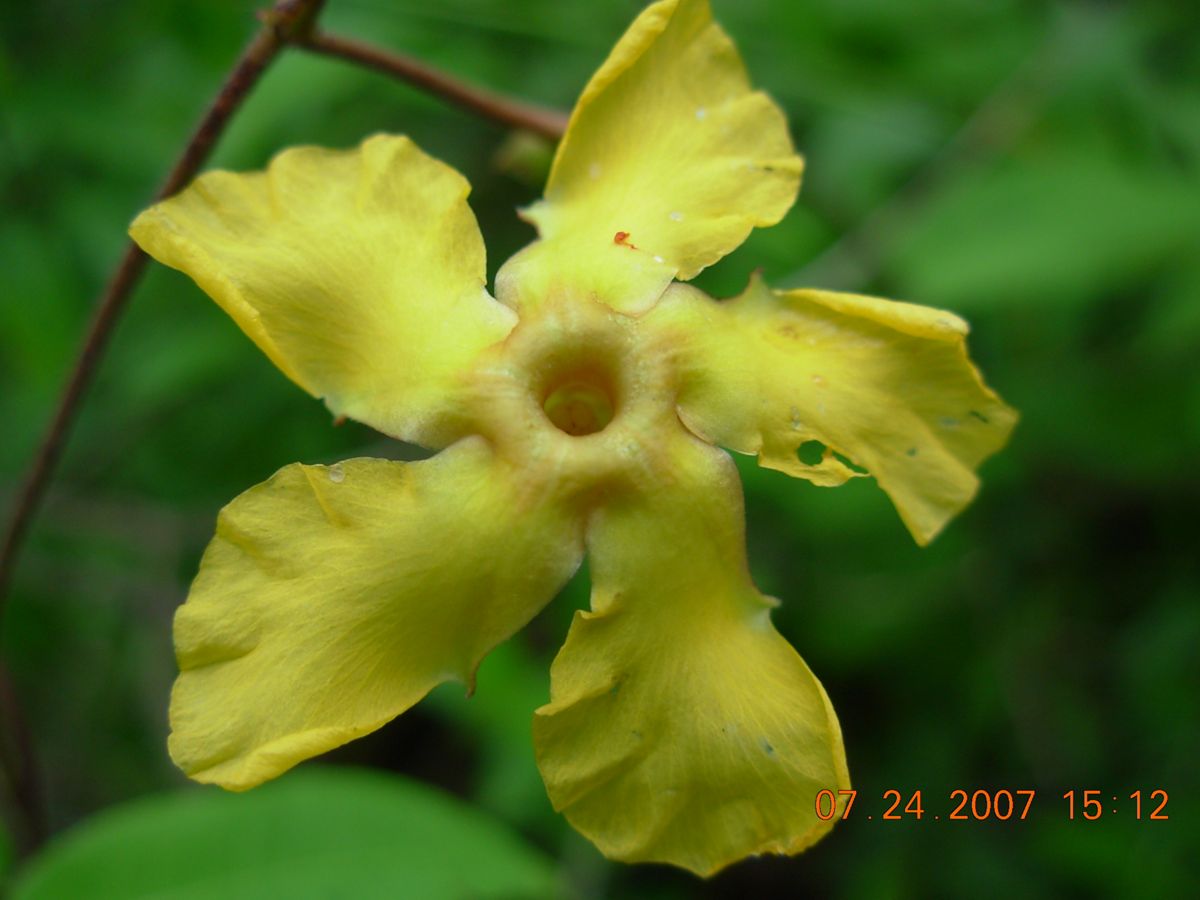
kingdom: Plantae
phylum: Tracheophyta
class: Magnoliopsida
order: Gentianales
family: Apocynaceae
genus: Mandevilla
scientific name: Mandevilla subsagittata
